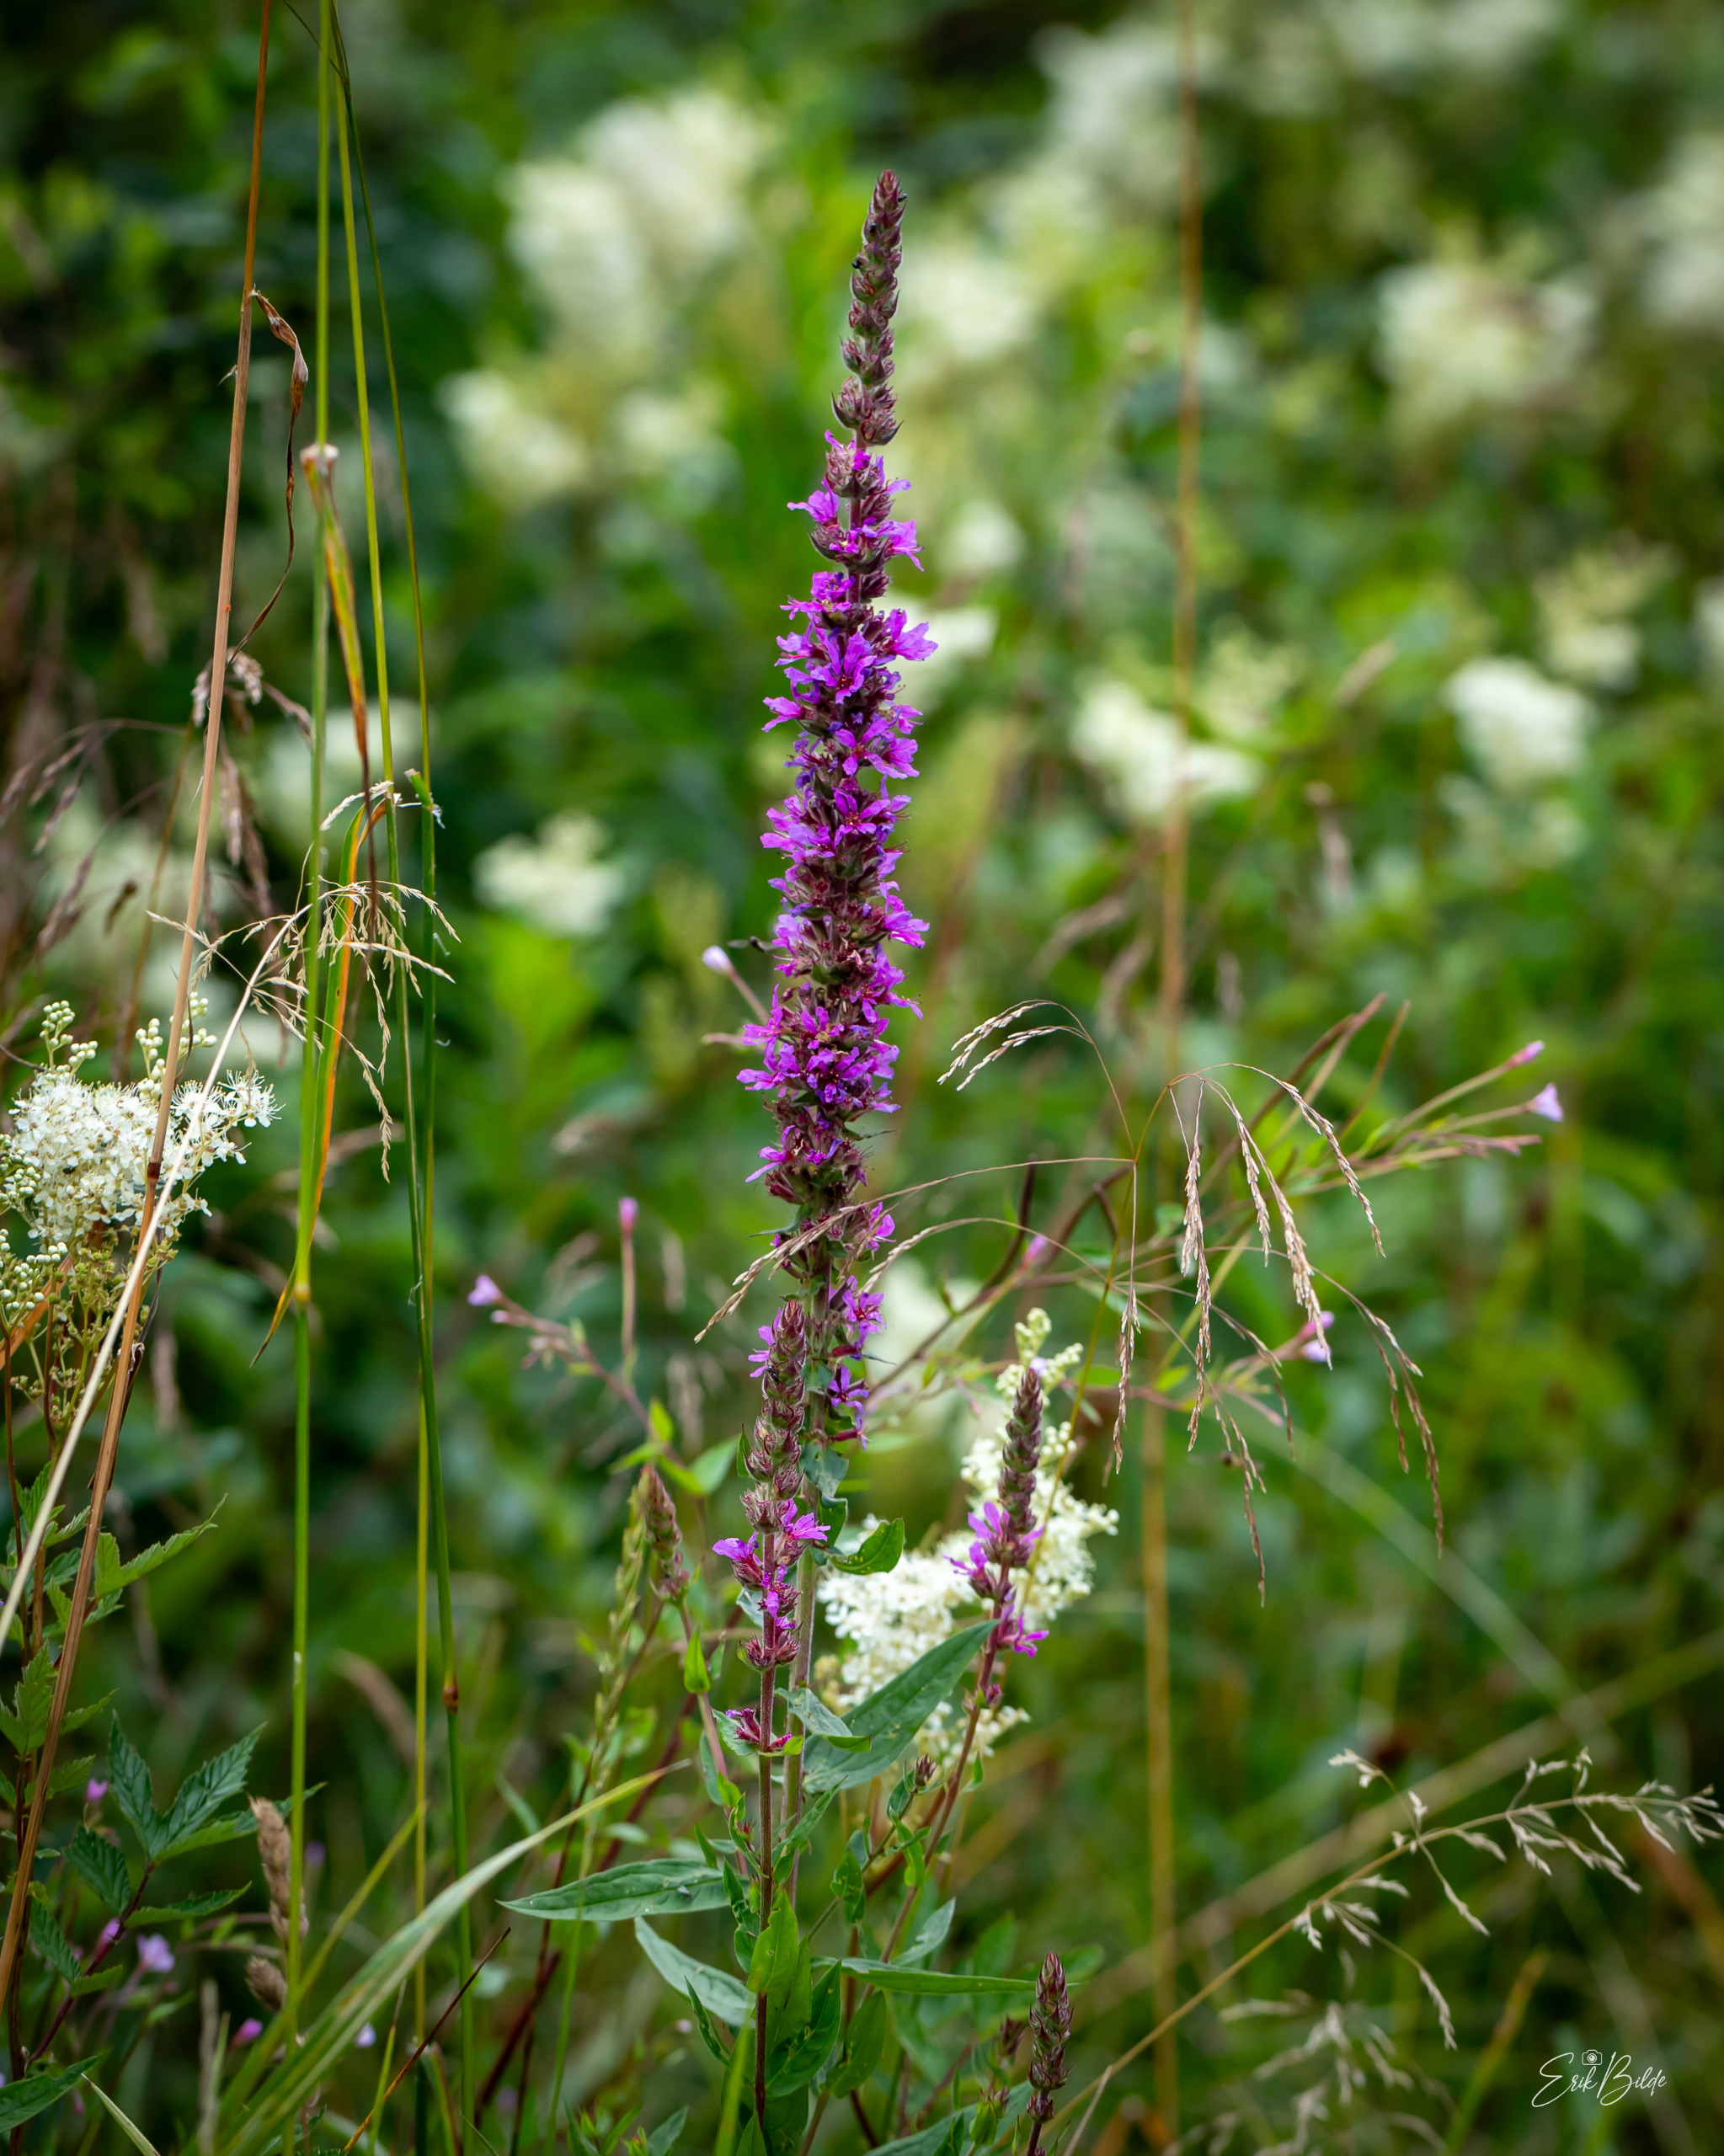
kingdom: Plantae
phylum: Tracheophyta
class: Magnoliopsida
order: Myrtales
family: Lythraceae
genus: Lythrum
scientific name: Lythrum salicaria
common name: Kattehale
